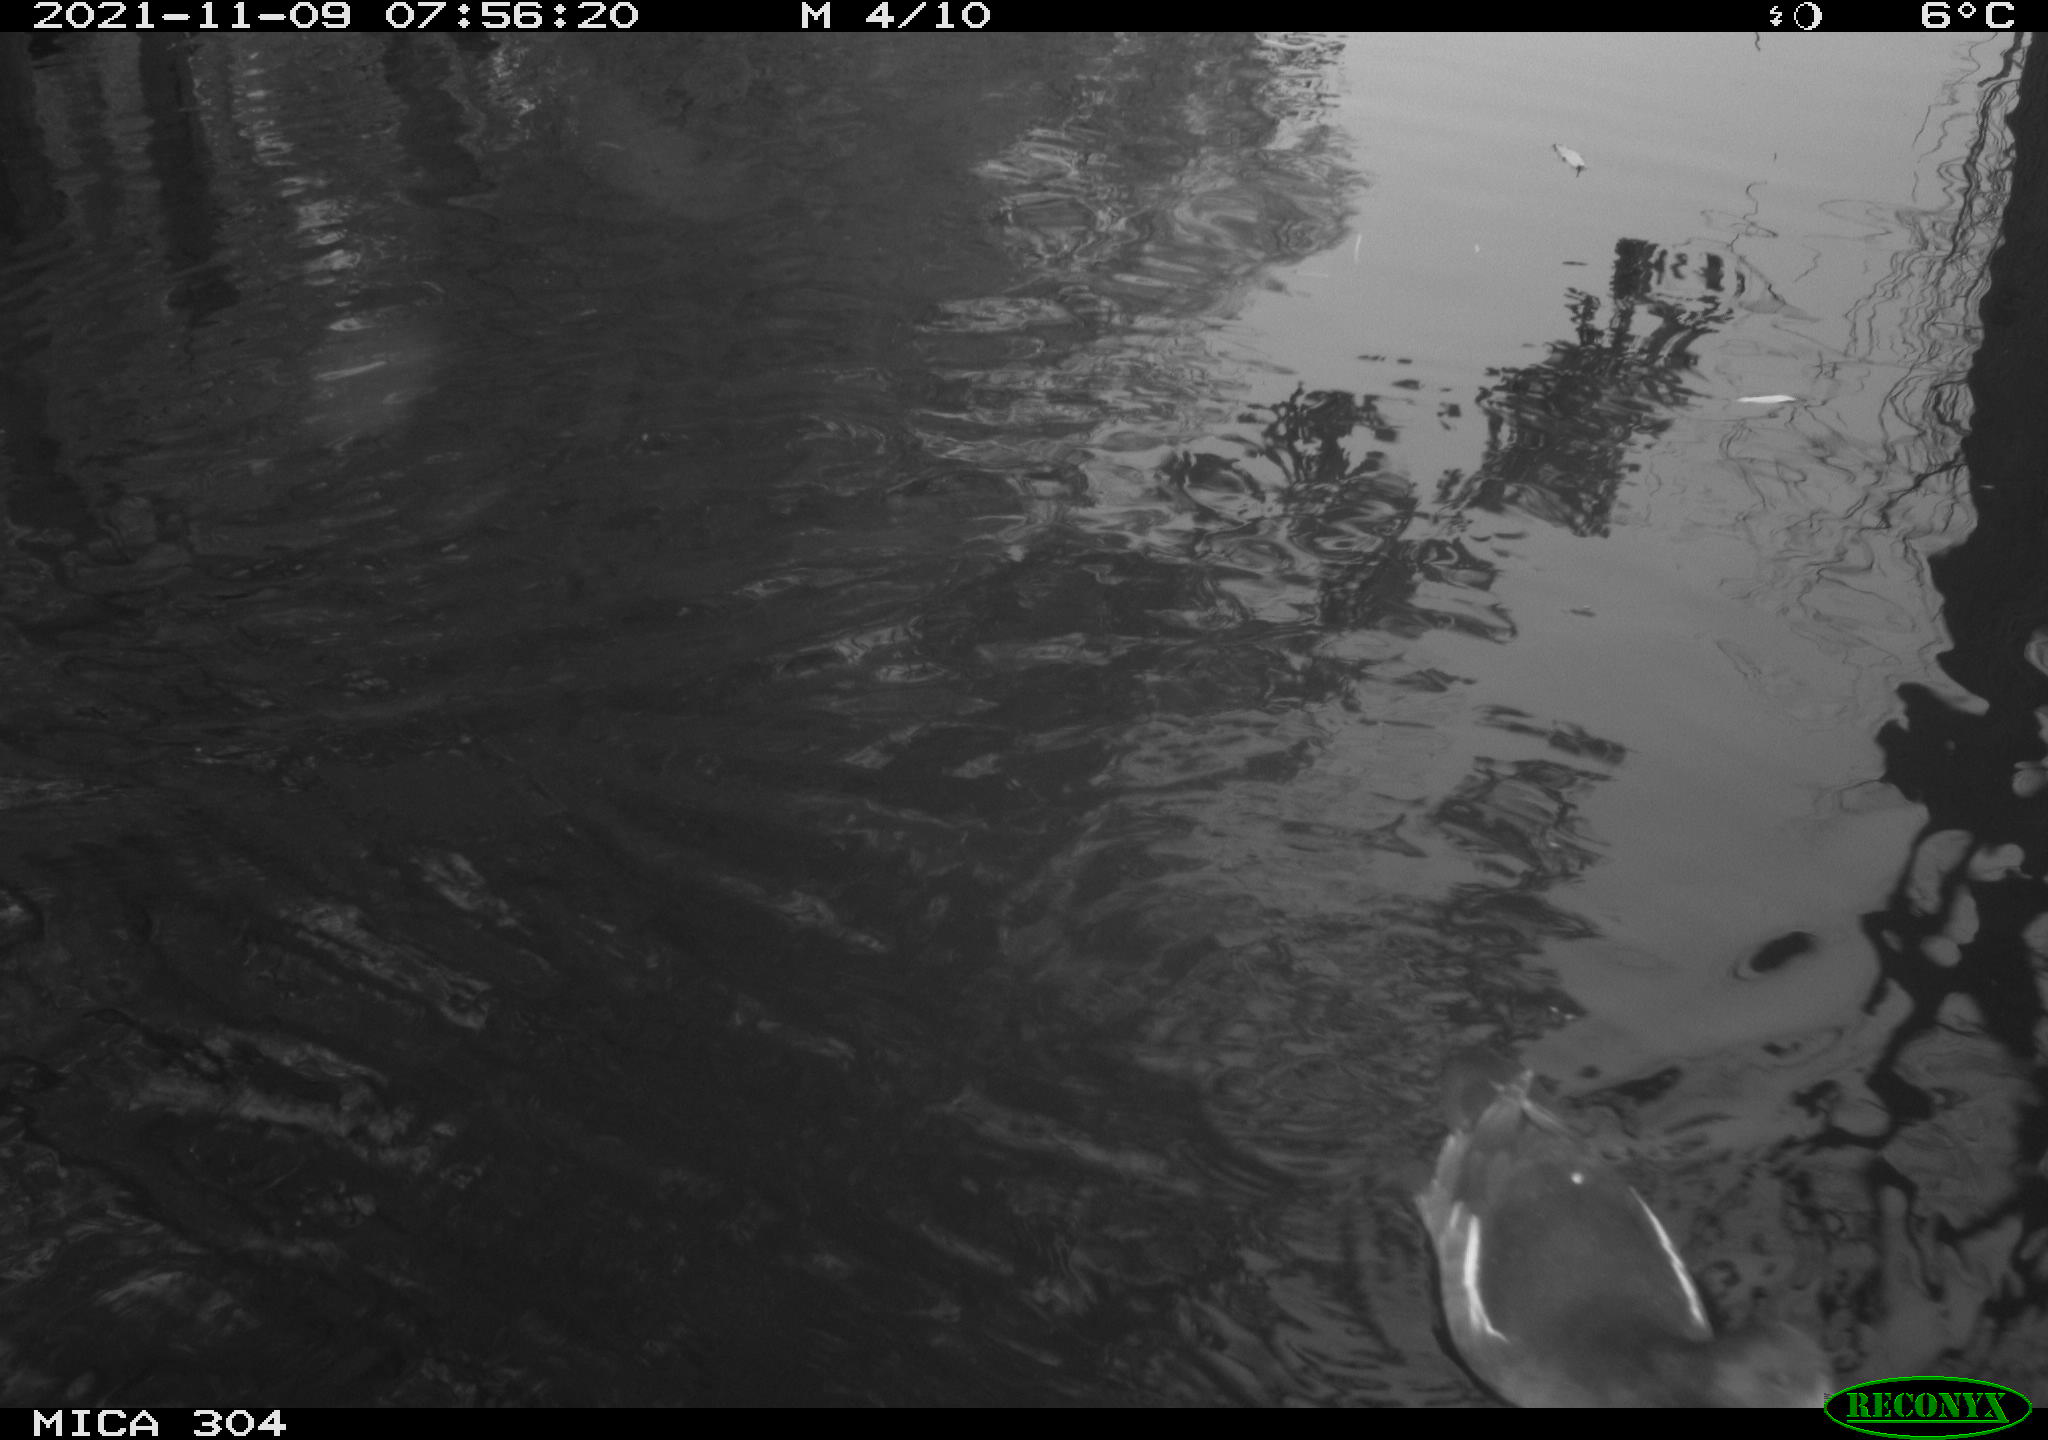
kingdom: Animalia
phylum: Chordata
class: Aves
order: Gruiformes
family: Rallidae
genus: Fulica
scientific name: Fulica atra
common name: Eurasian coot
